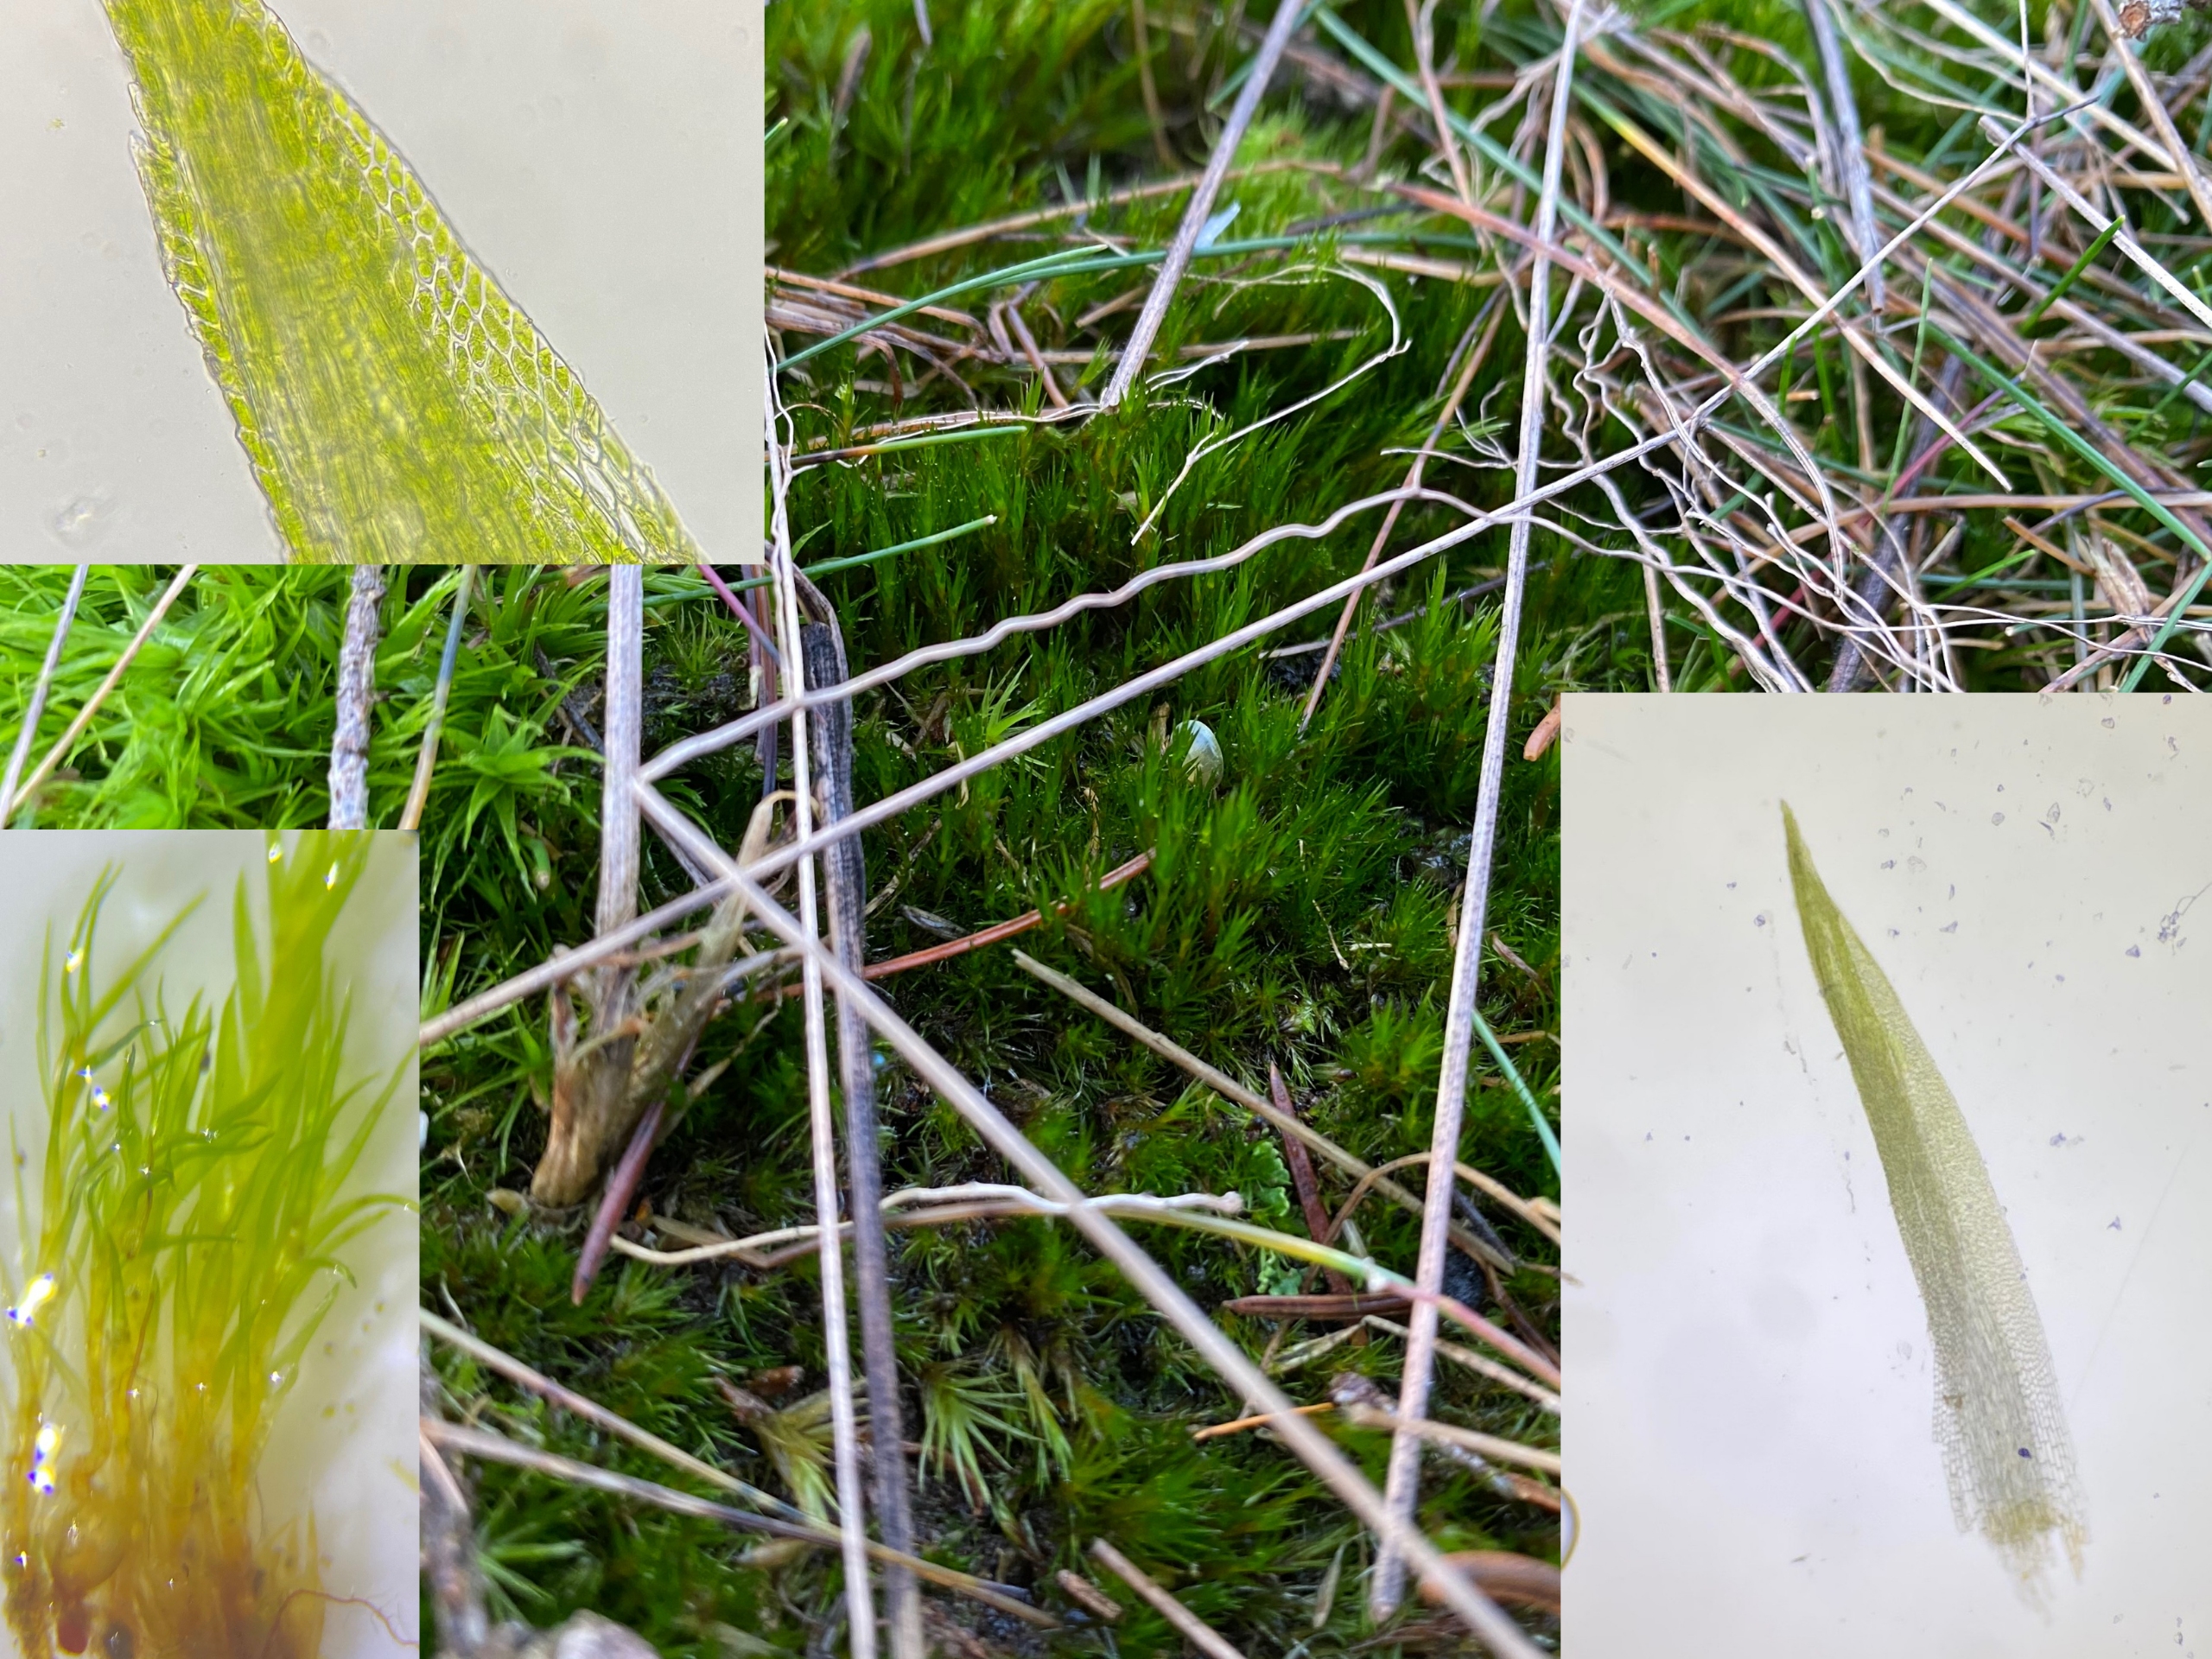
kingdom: Plantae
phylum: Bryophyta
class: Bryopsida
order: Dicranales
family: Leucobryaceae
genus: Campylopus
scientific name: Campylopus introflexus
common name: Stjerne-bredribbe
